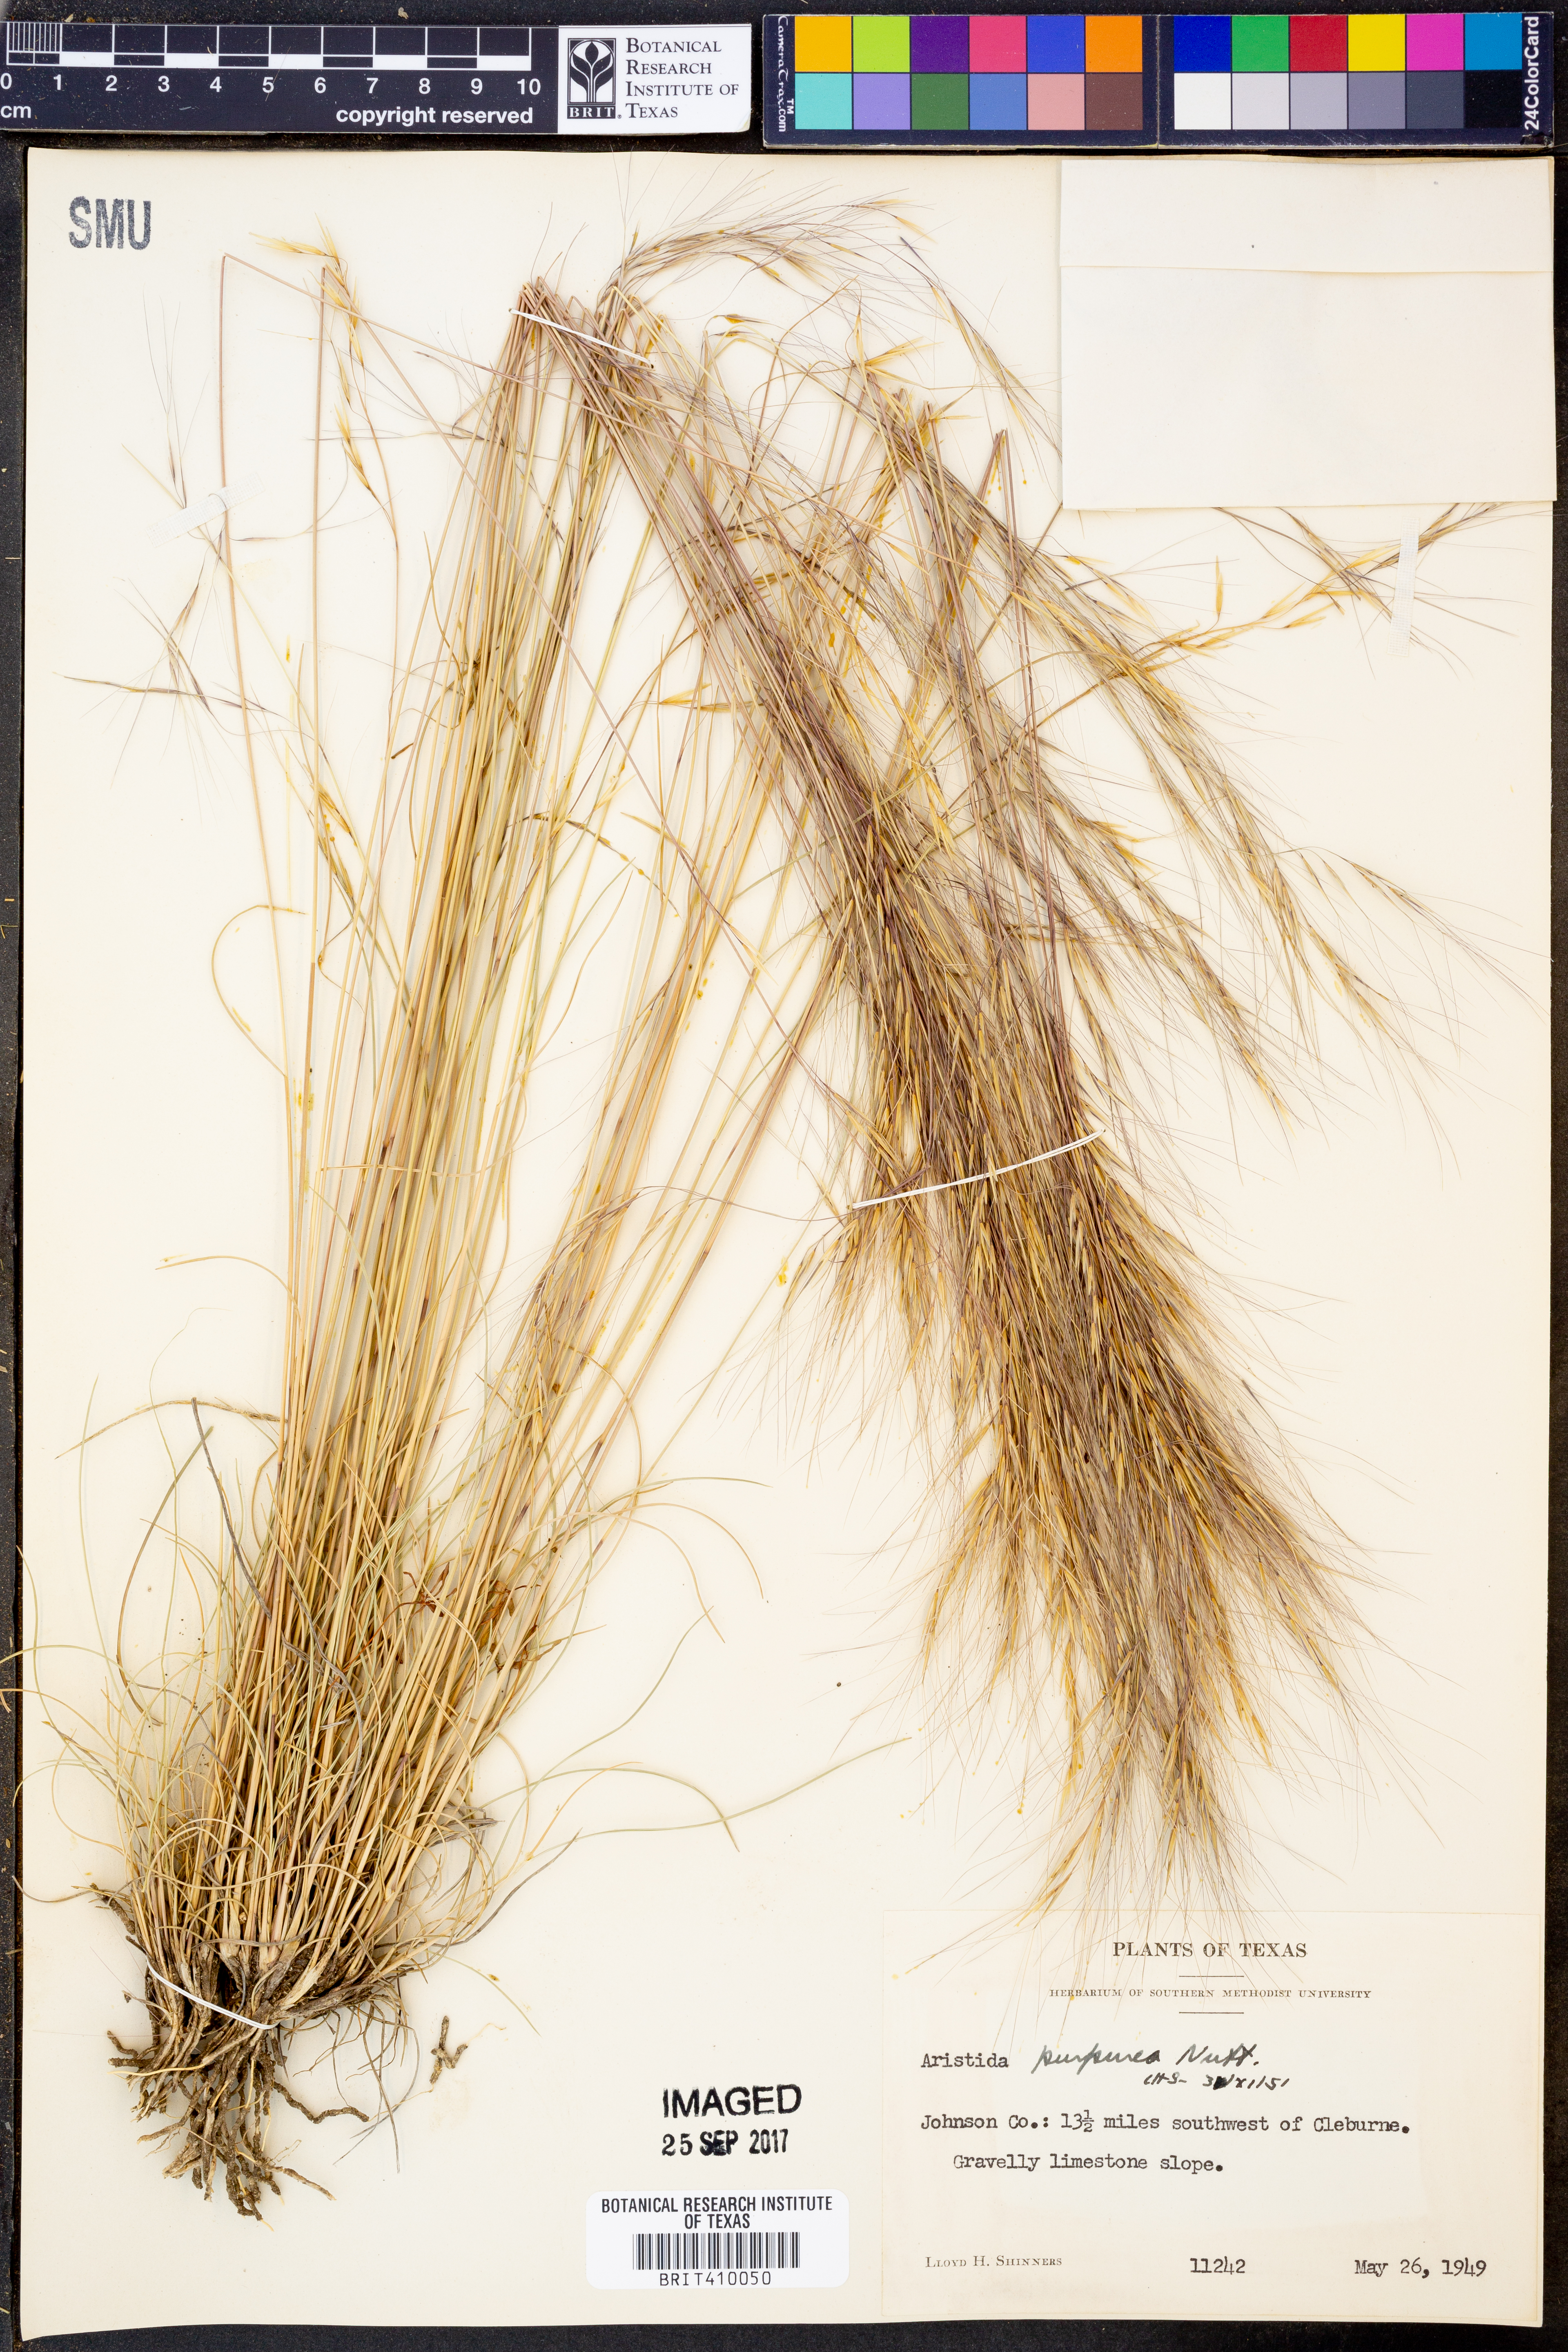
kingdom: Plantae
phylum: Tracheophyta
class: Liliopsida
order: Poales
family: Poaceae
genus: Aristida
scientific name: Aristida purpurea
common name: Purple threeawn
